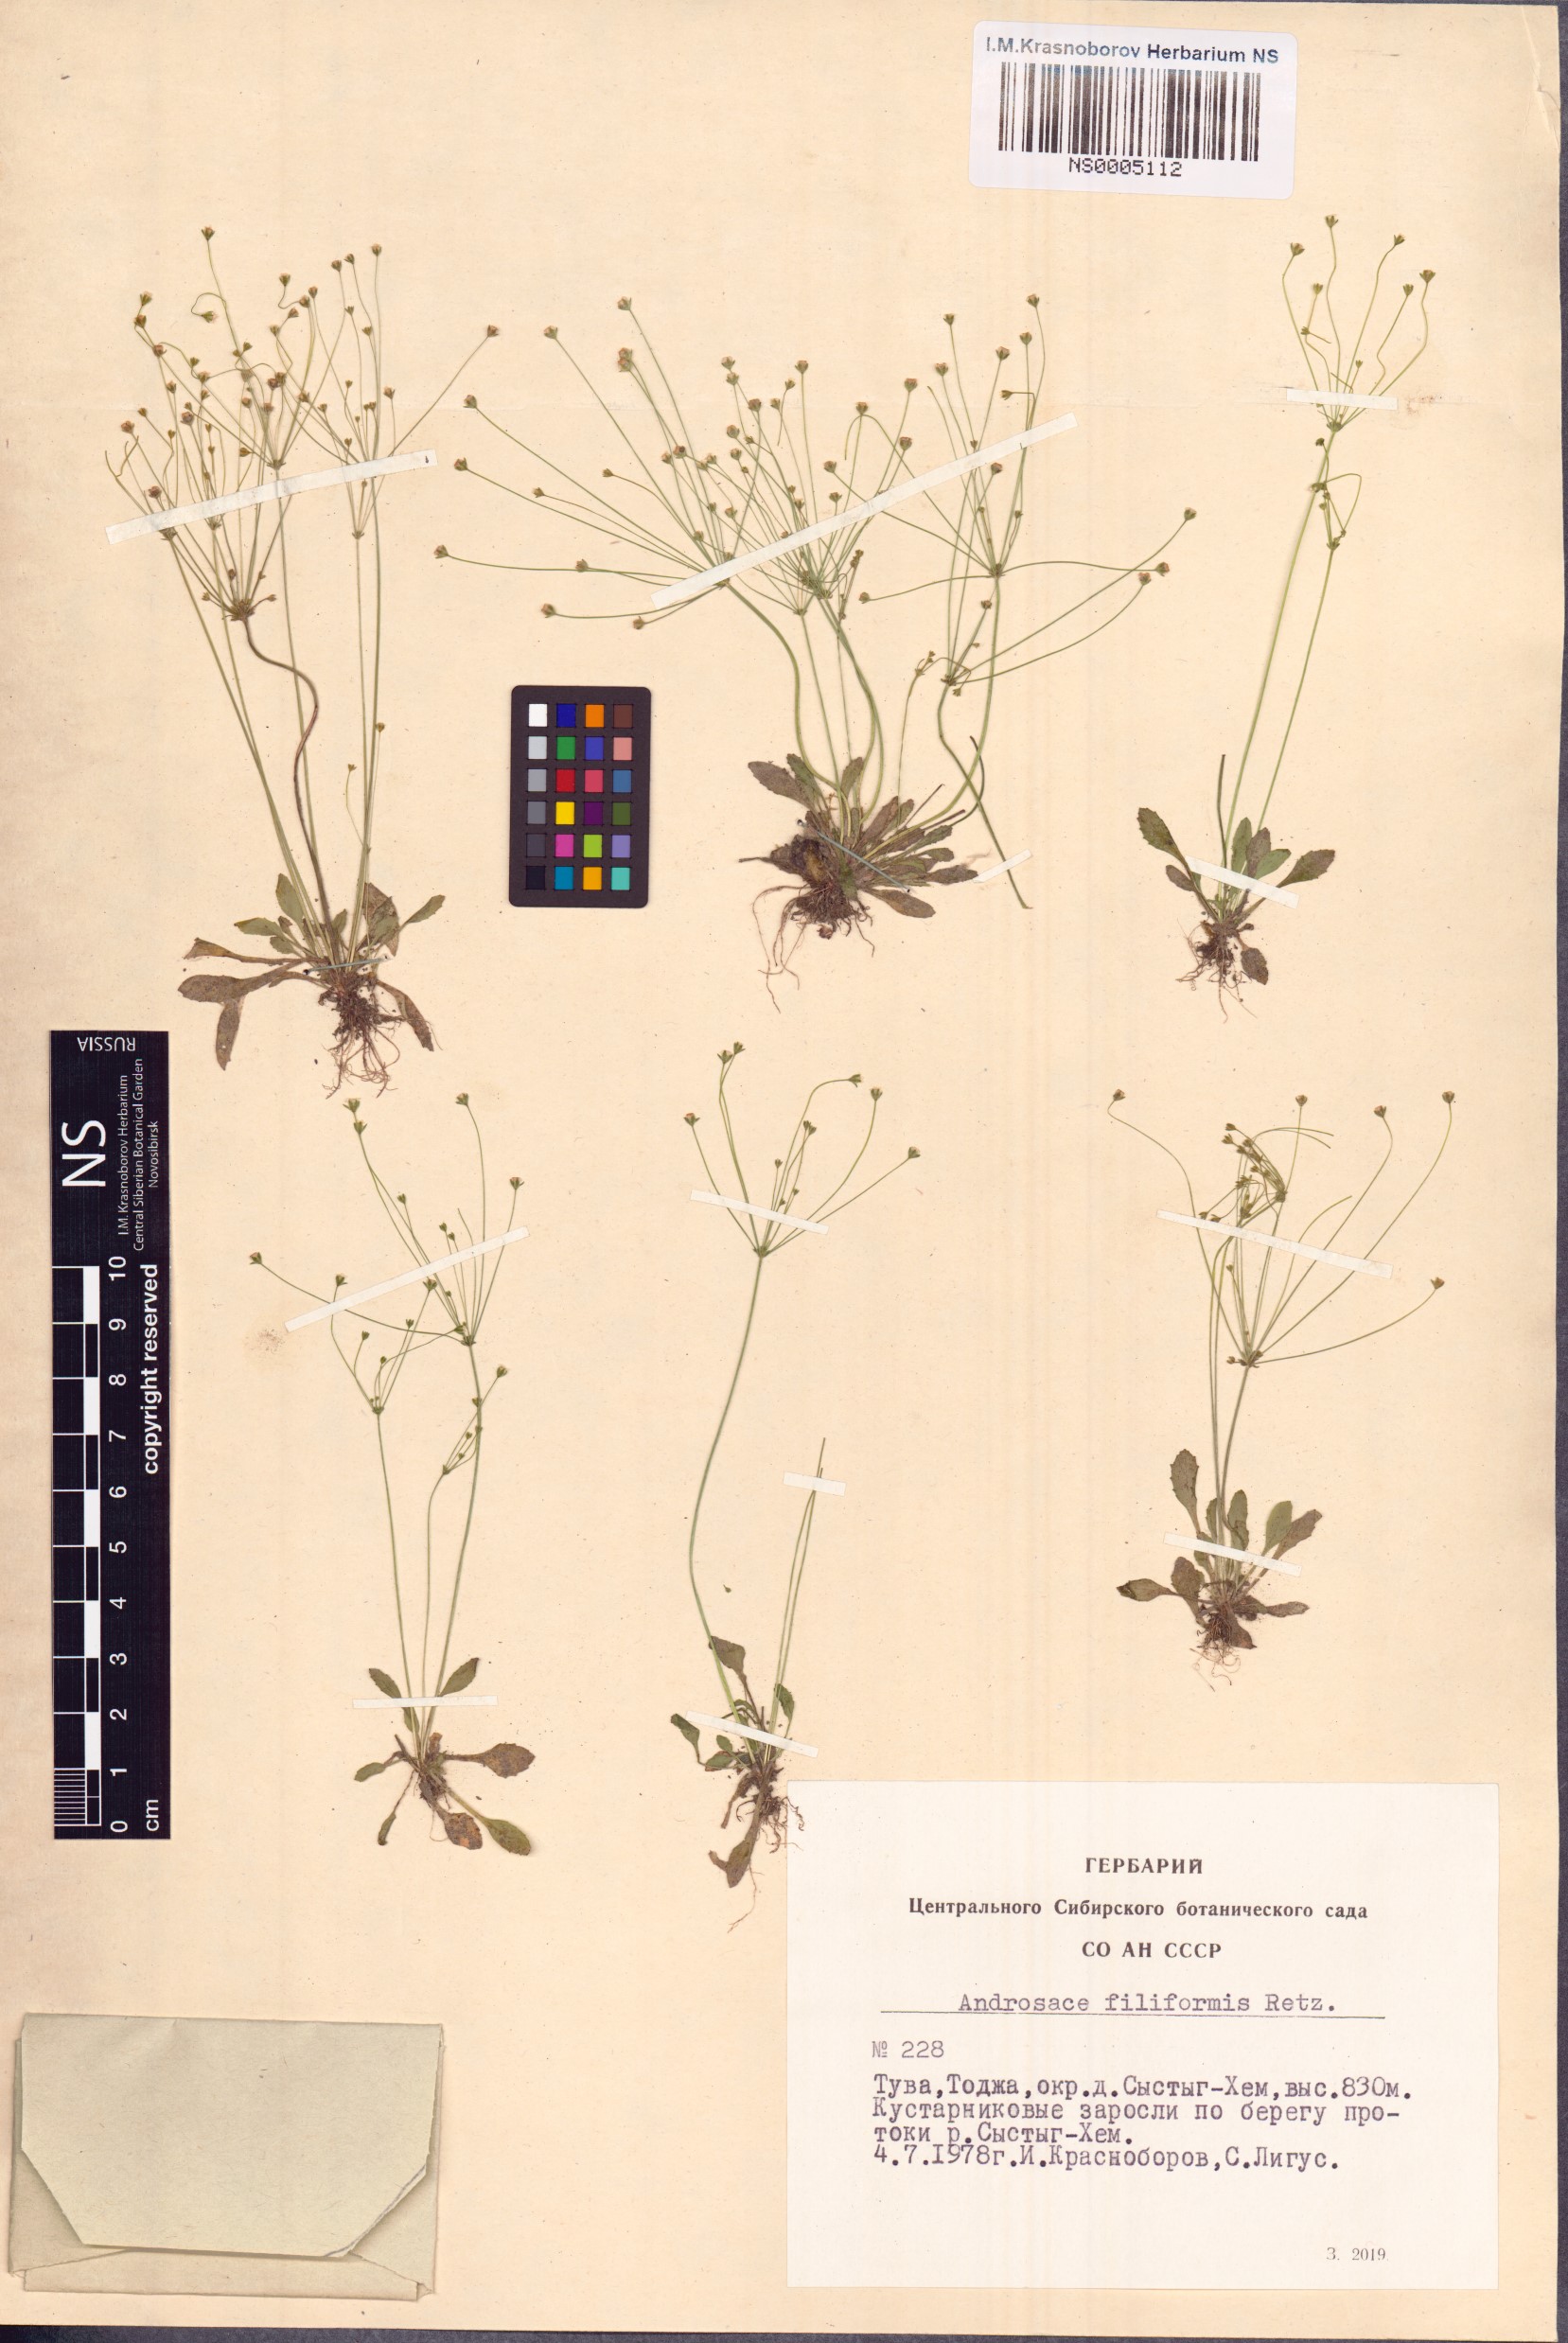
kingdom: Plantae
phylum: Tracheophyta
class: Magnoliopsida
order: Ericales
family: Primulaceae
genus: Androsace
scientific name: Androsace filiformis
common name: Filiform rock jasmine
